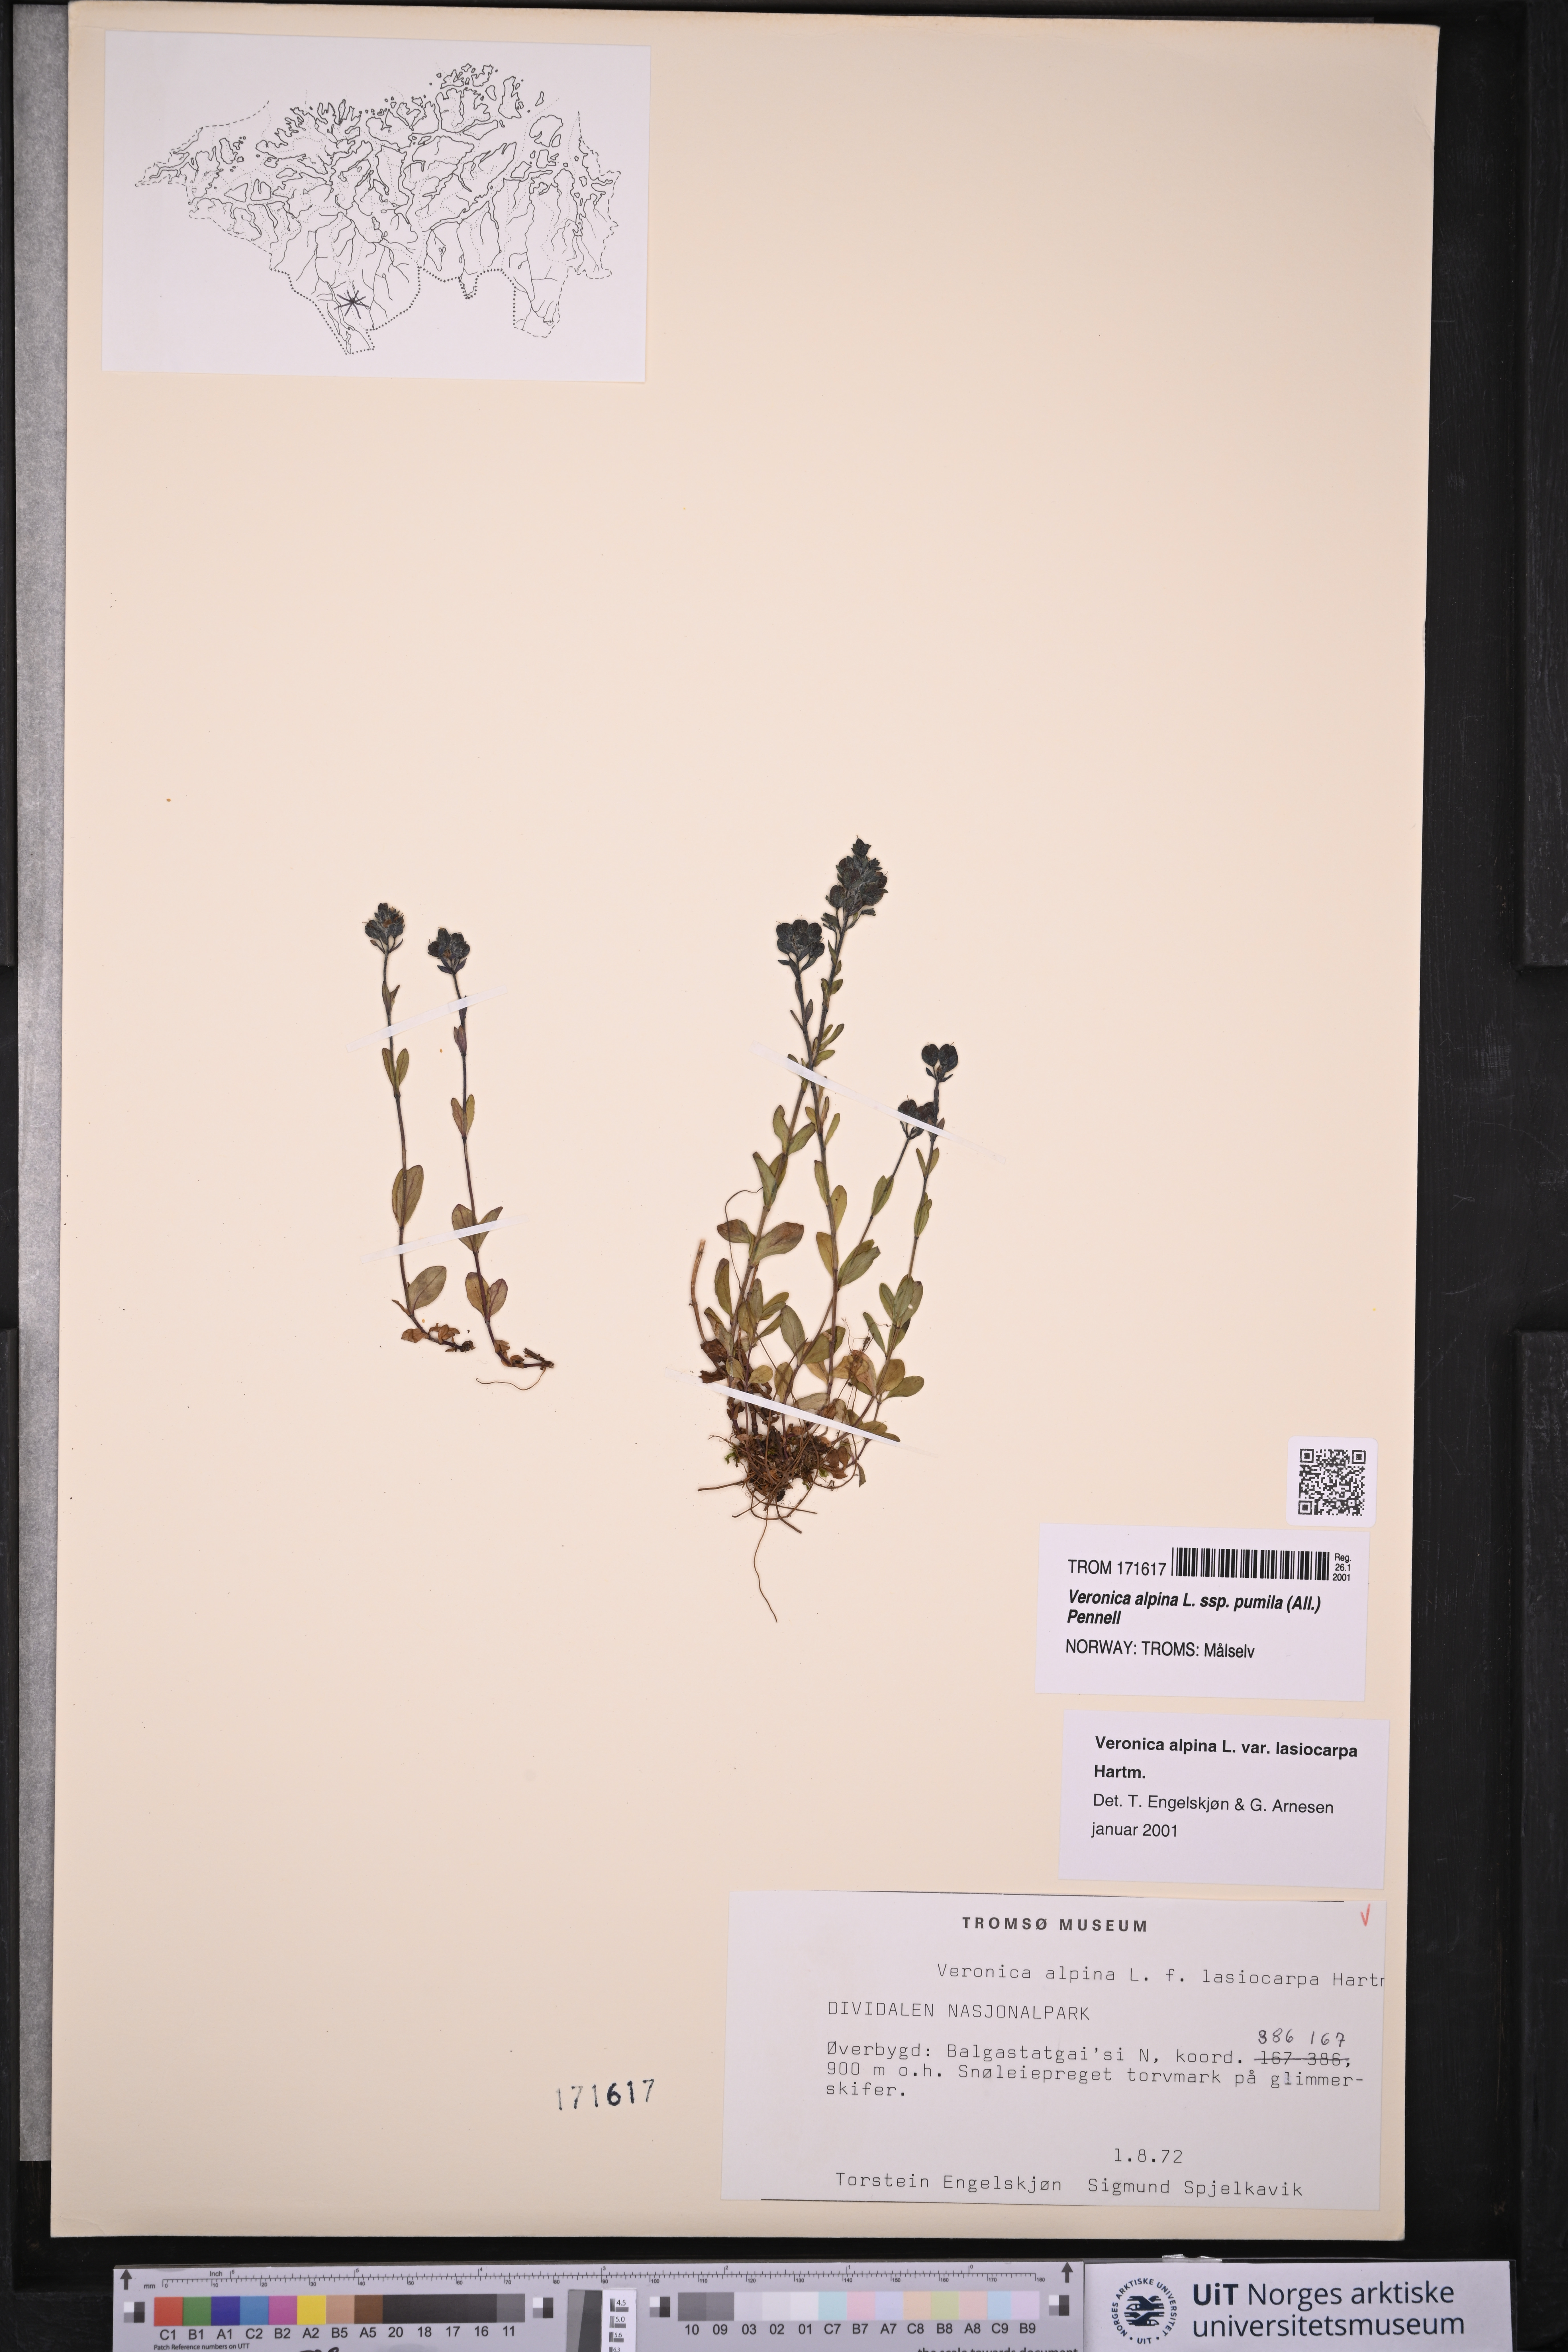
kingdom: Plantae
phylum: Tracheophyta
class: Magnoliopsida
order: Lamiales
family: Plantaginaceae
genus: Veronica
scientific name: Veronica alpina
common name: Alpine speedwell
